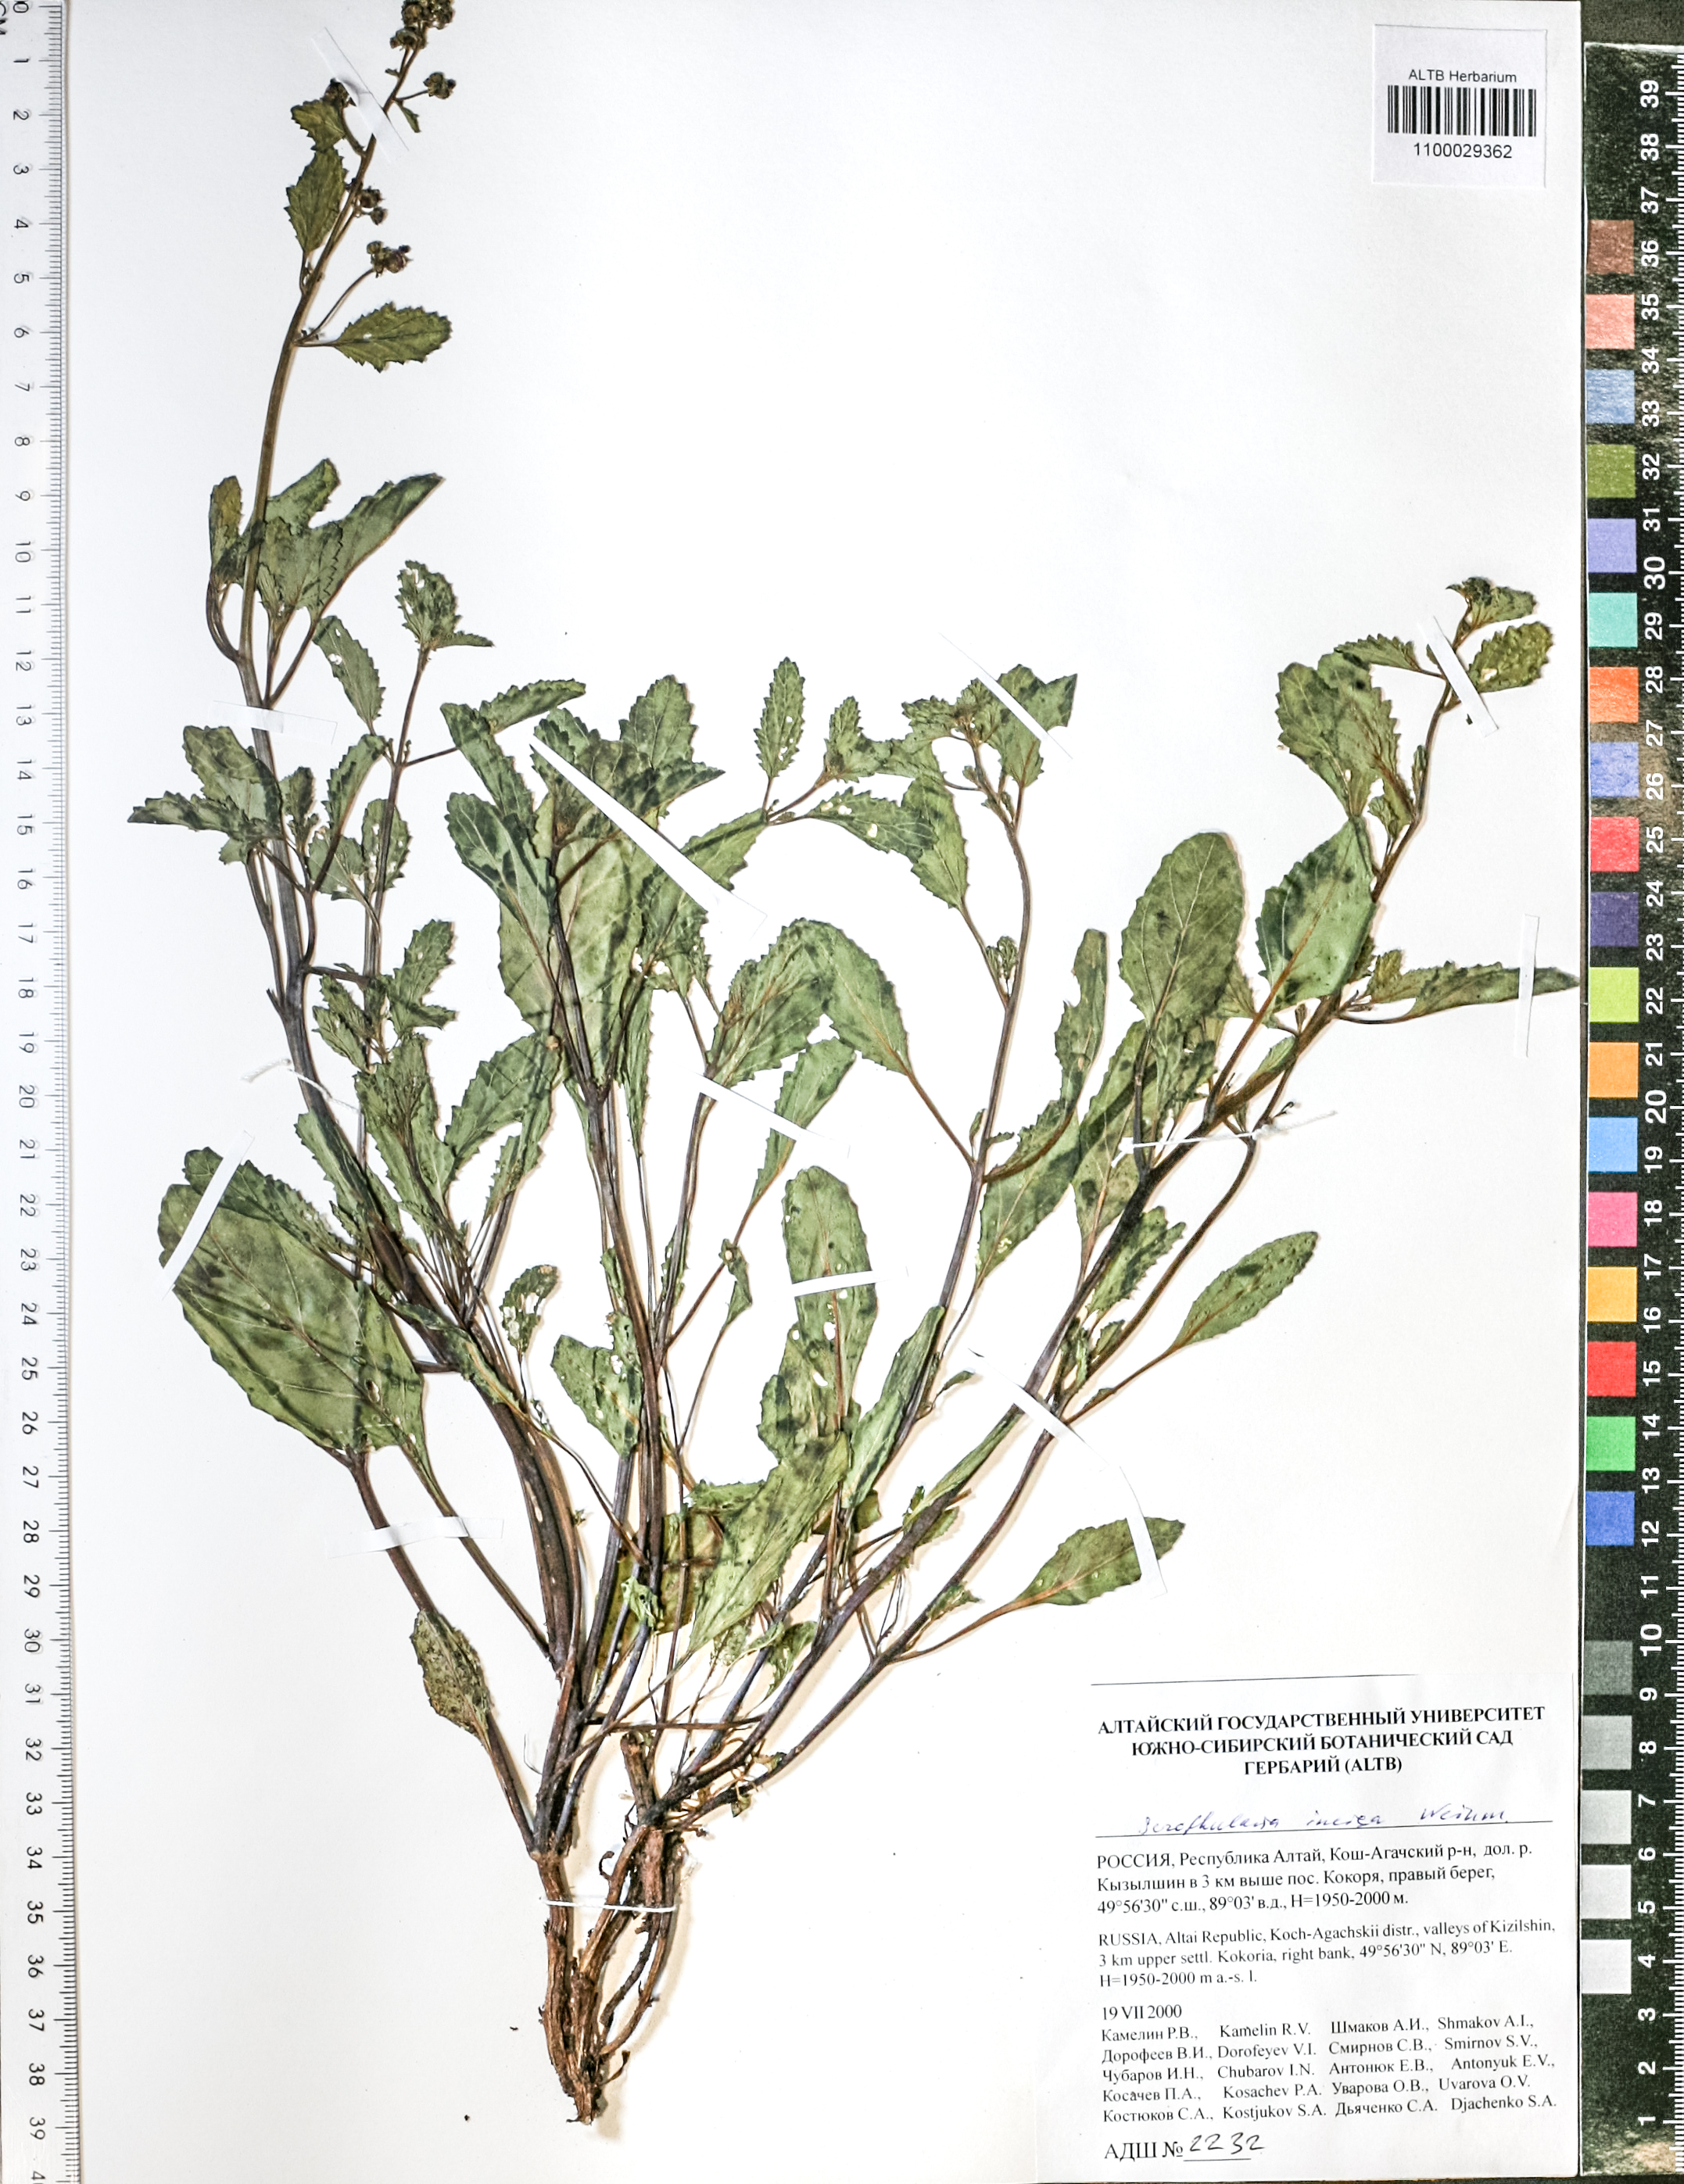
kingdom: Plantae
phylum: Tracheophyta
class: Magnoliopsida
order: Lamiales
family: Scrophulariaceae
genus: Scrophularia
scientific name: Scrophularia incisa
